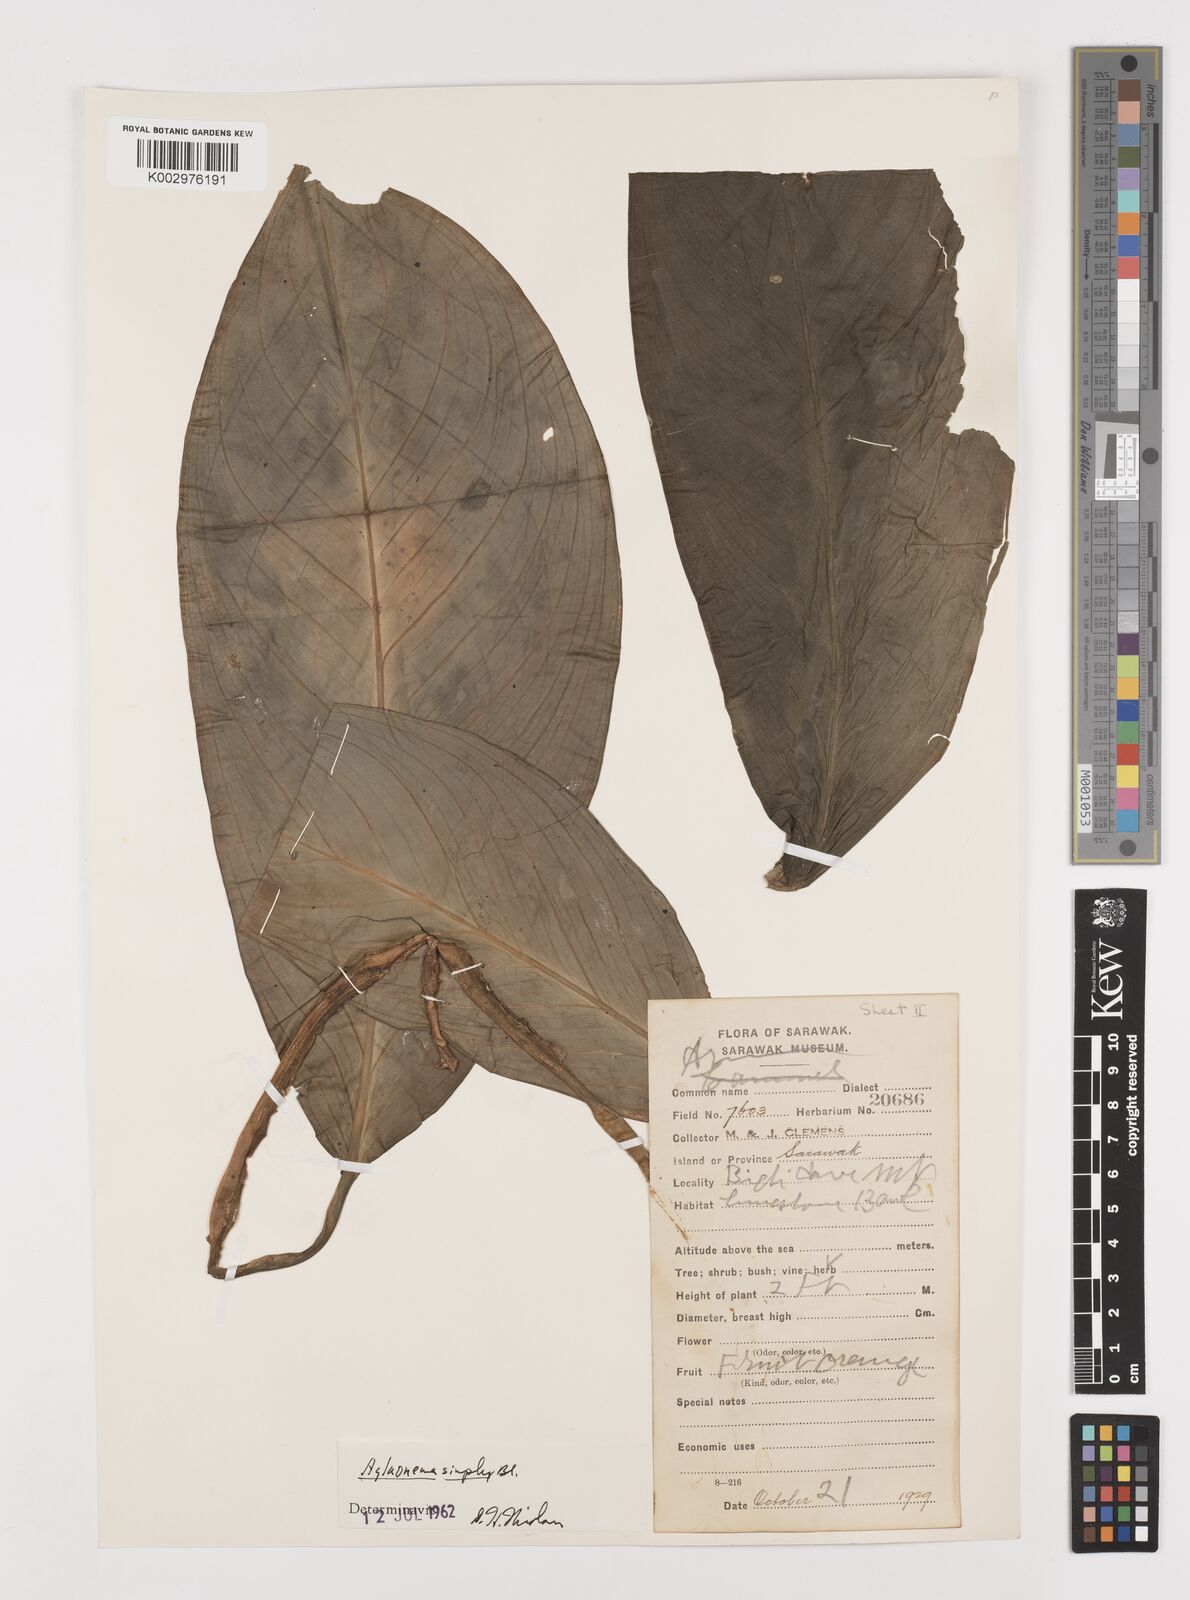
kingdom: Plantae
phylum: Tracheophyta
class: Liliopsida
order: Alismatales
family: Araceae
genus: Aglaonema
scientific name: Aglaonema simplex
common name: Malayan-sword
